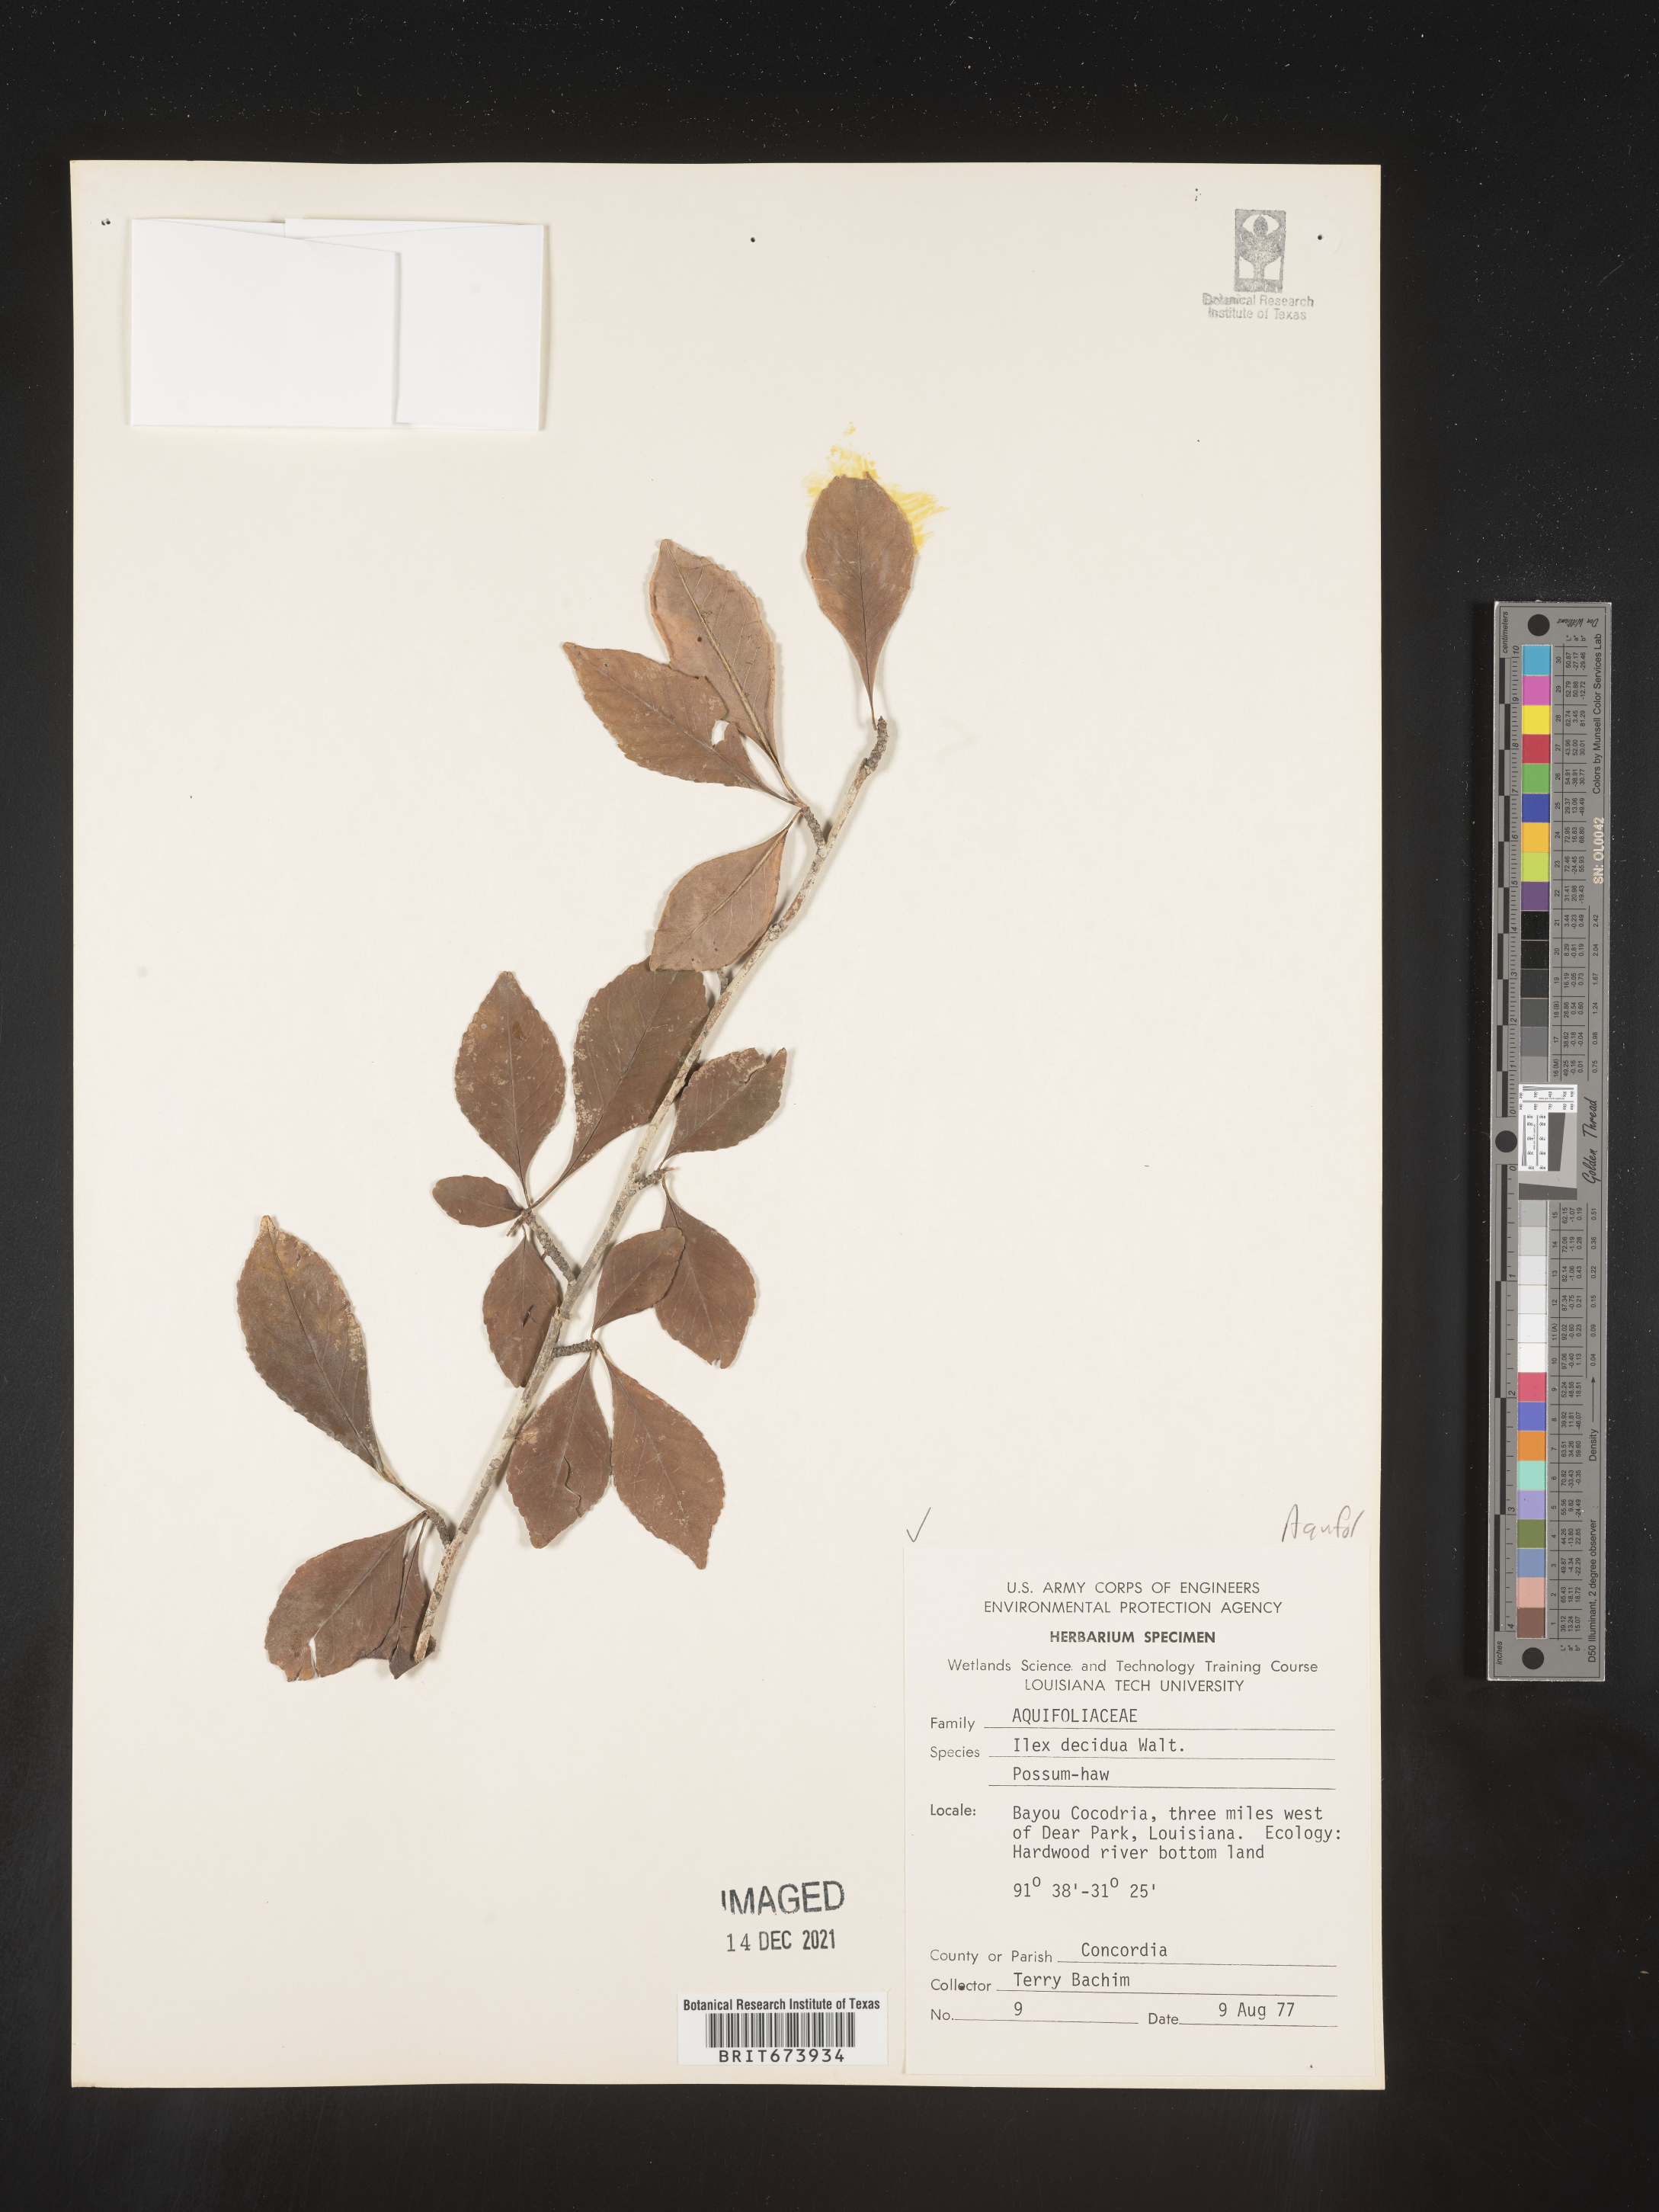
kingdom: Plantae
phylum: Tracheophyta
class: Magnoliopsida
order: Aquifoliales
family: Aquifoliaceae
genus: Ilex
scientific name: Ilex decidua
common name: Possum-haw
